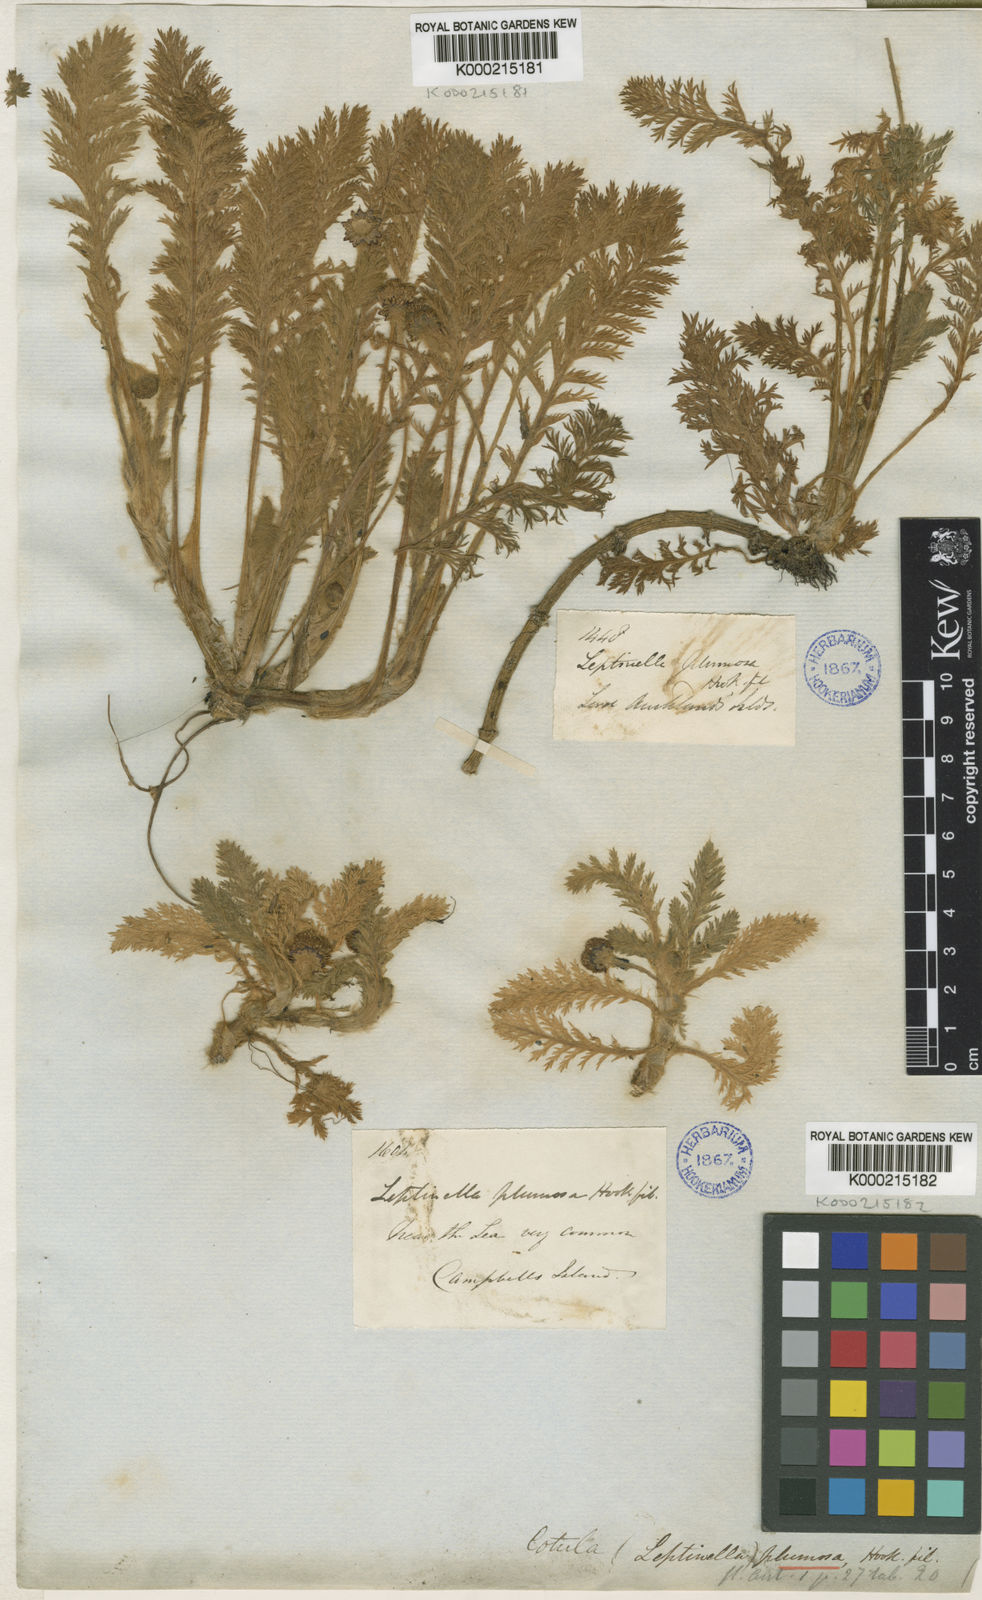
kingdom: Plantae
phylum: Tracheophyta
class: Magnoliopsida
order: Asterales
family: Asteraceae
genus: Leptinella
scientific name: Leptinella
